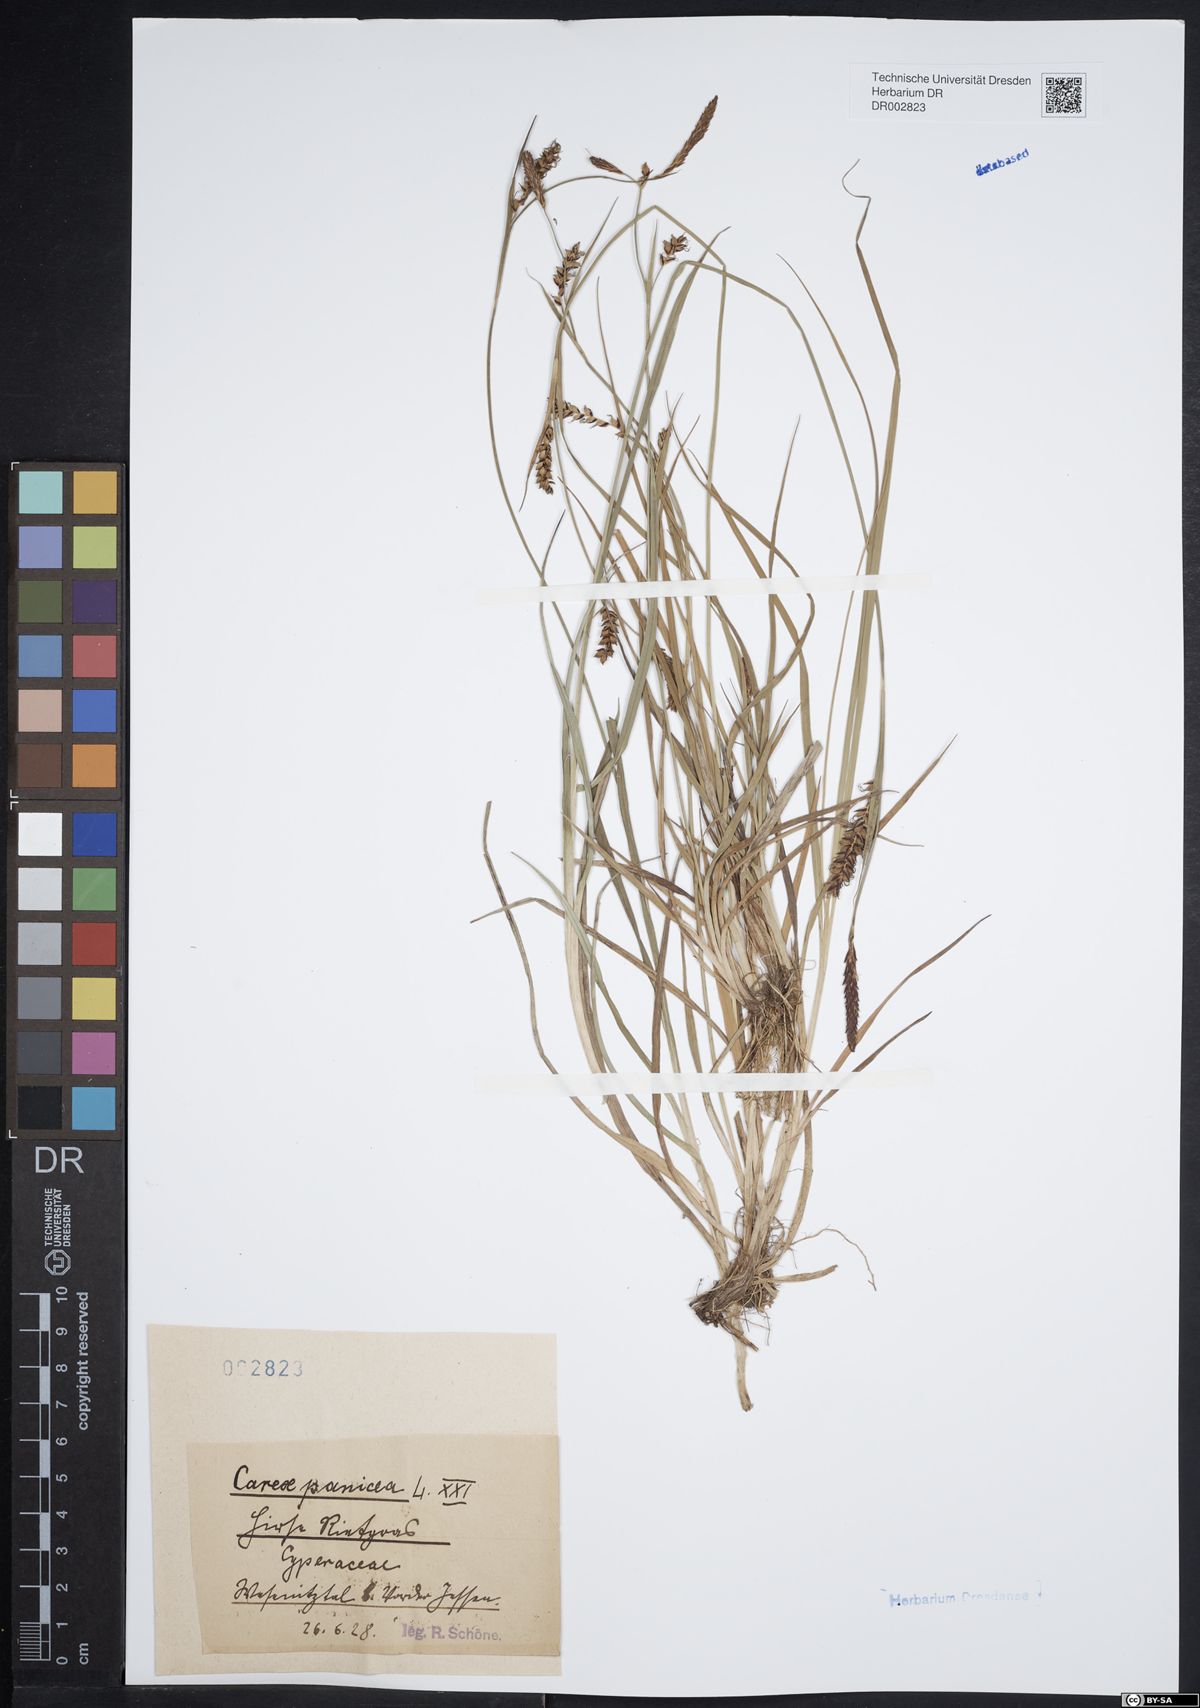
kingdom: Plantae
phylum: Tracheophyta
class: Liliopsida
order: Poales
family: Cyperaceae
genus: Carex
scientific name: Carex panicea
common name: Carnation sedge
